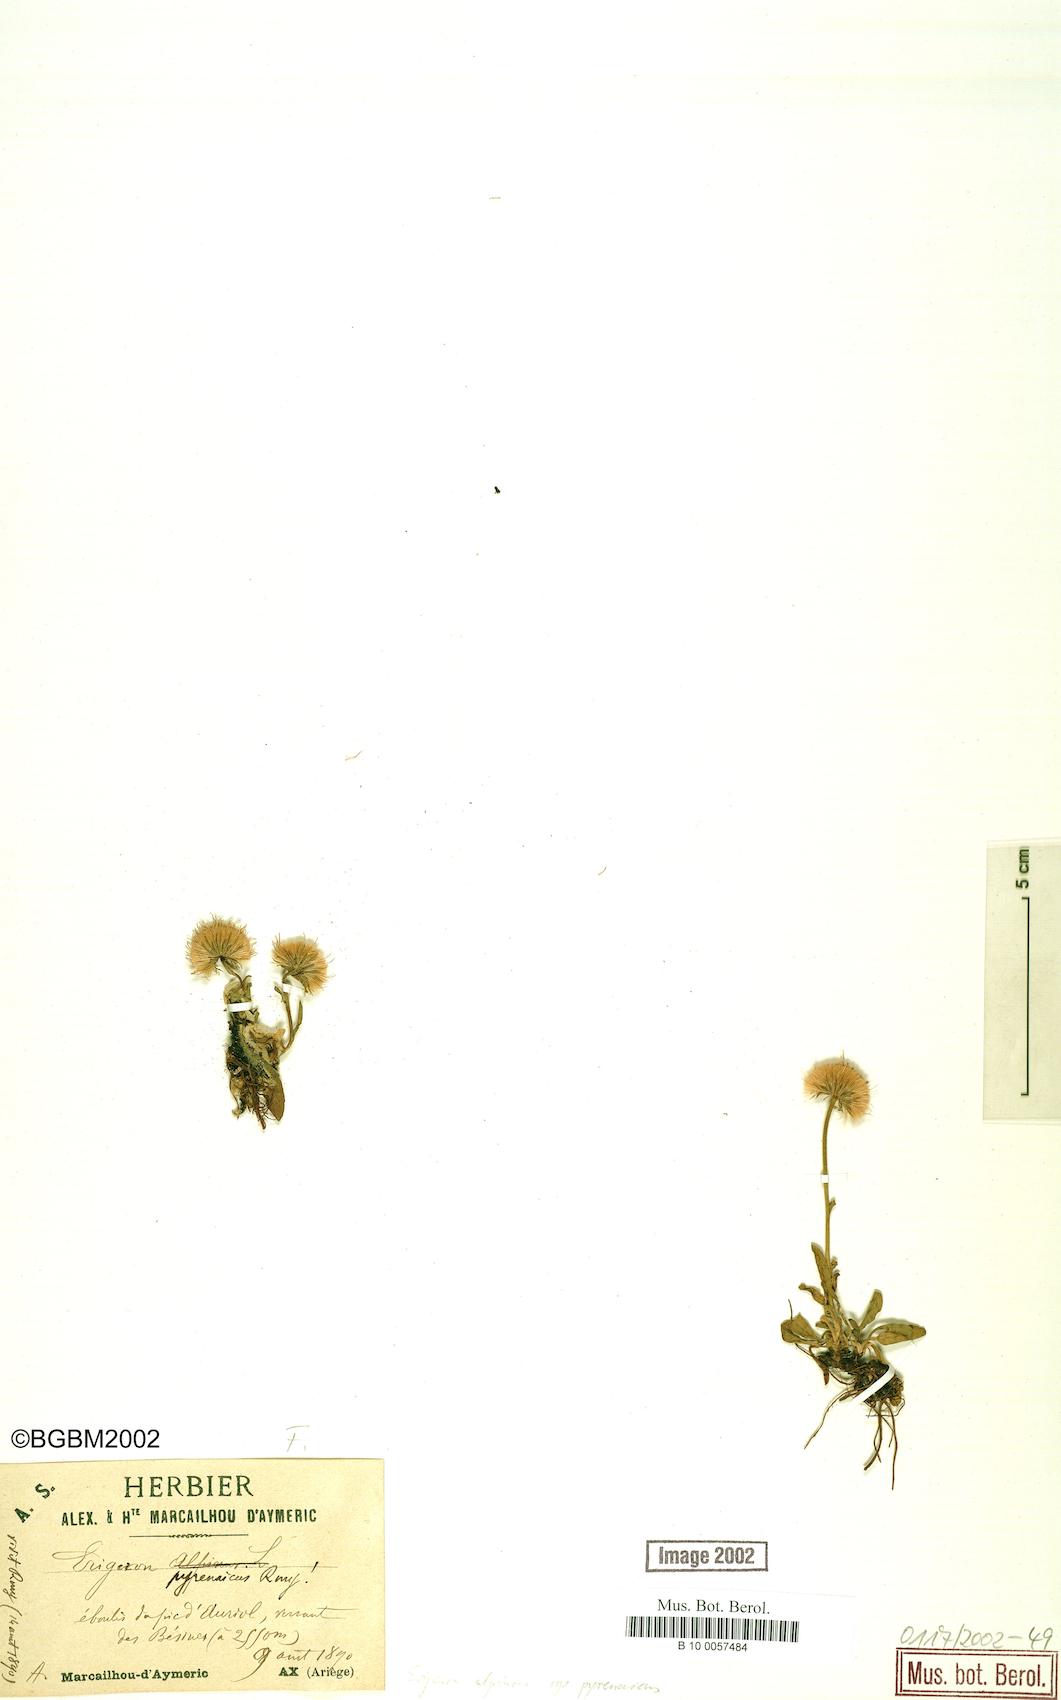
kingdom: Plantae
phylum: Tracheophyta
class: Magnoliopsida
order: Asterales
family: Asteraceae
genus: Erigeron
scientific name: Erigeron uniflorus
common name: Northern daisy
